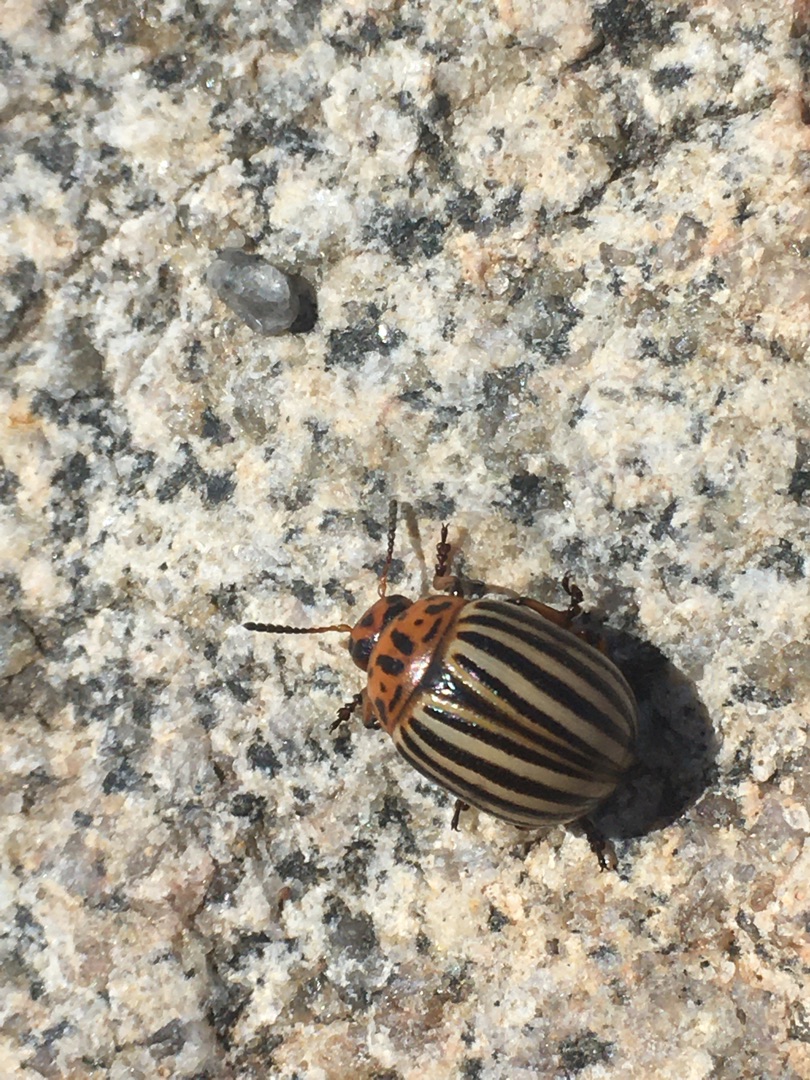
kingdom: Animalia
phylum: Arthropoda
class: Insecta
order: Coleoptera
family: Chrysomelidae
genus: Leptinotarsa
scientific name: Leptinotarsa decemlineata
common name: Coloradobille
